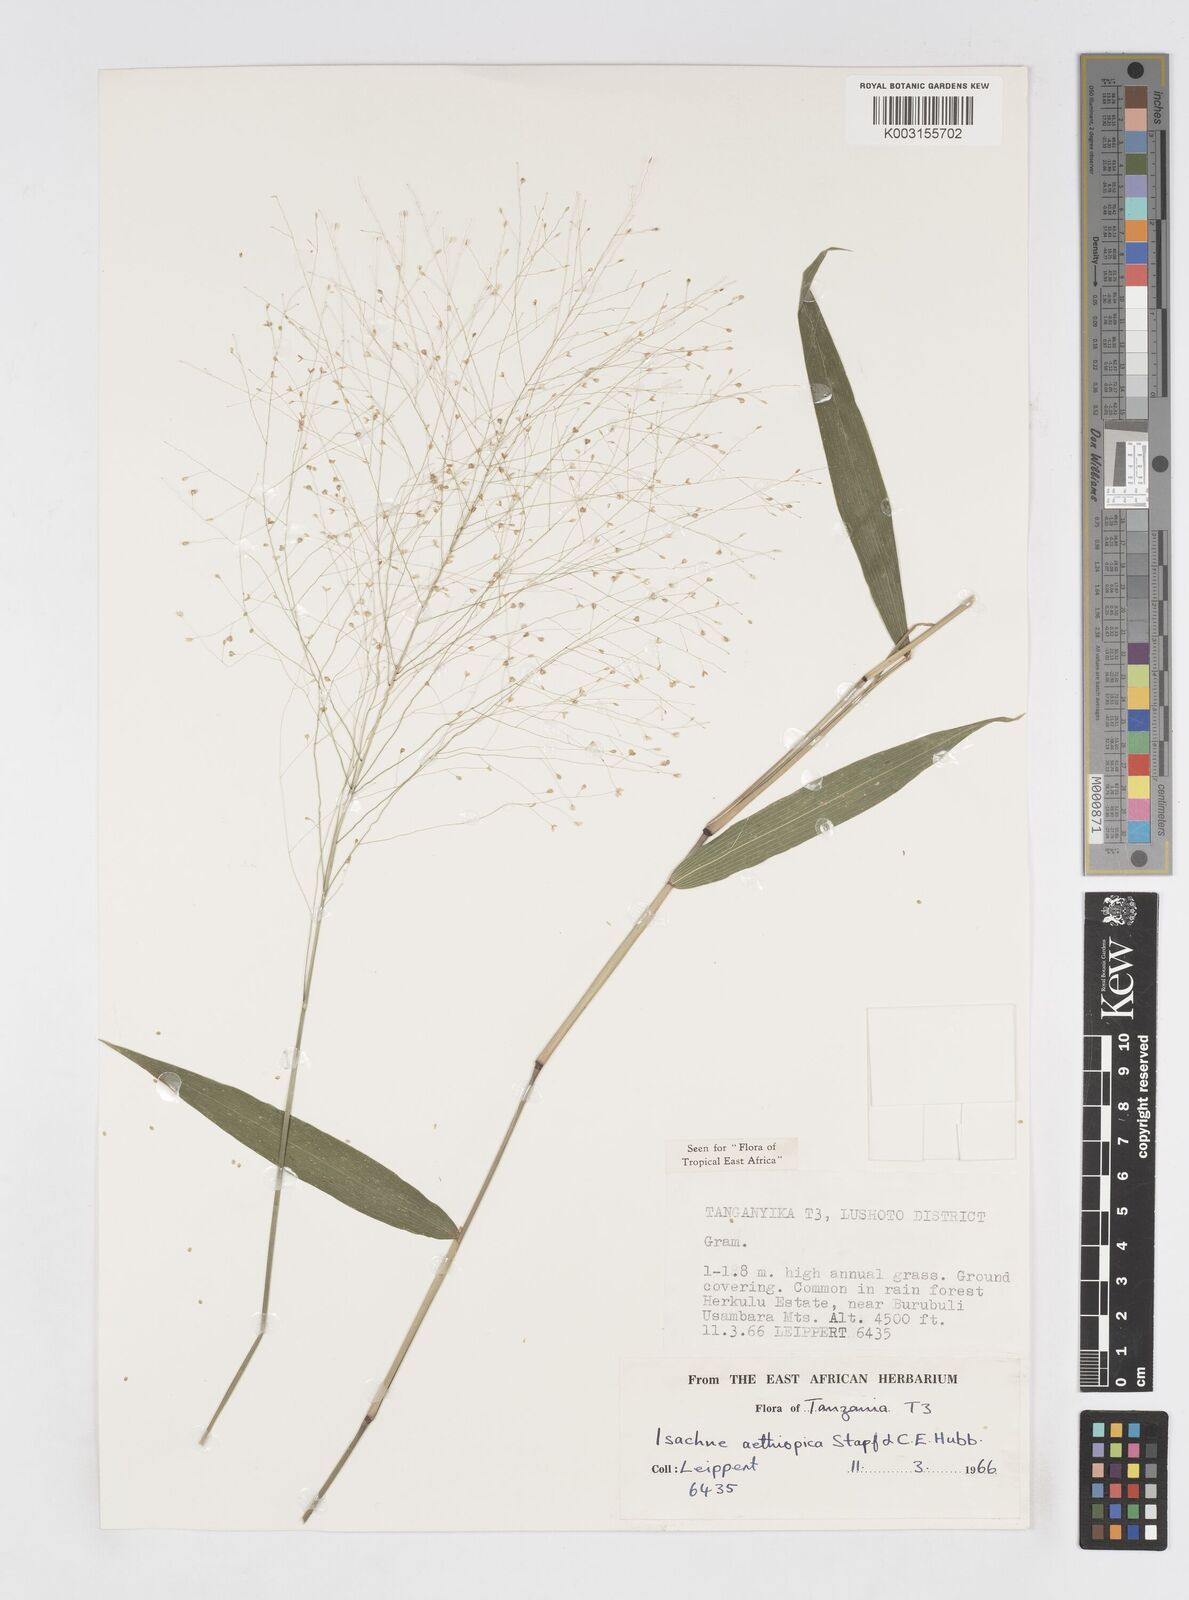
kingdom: Plantae
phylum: Tracheophyta
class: Liliopsida
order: Poales
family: Poaceae
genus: Isachne
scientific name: Isachne mauritiana
